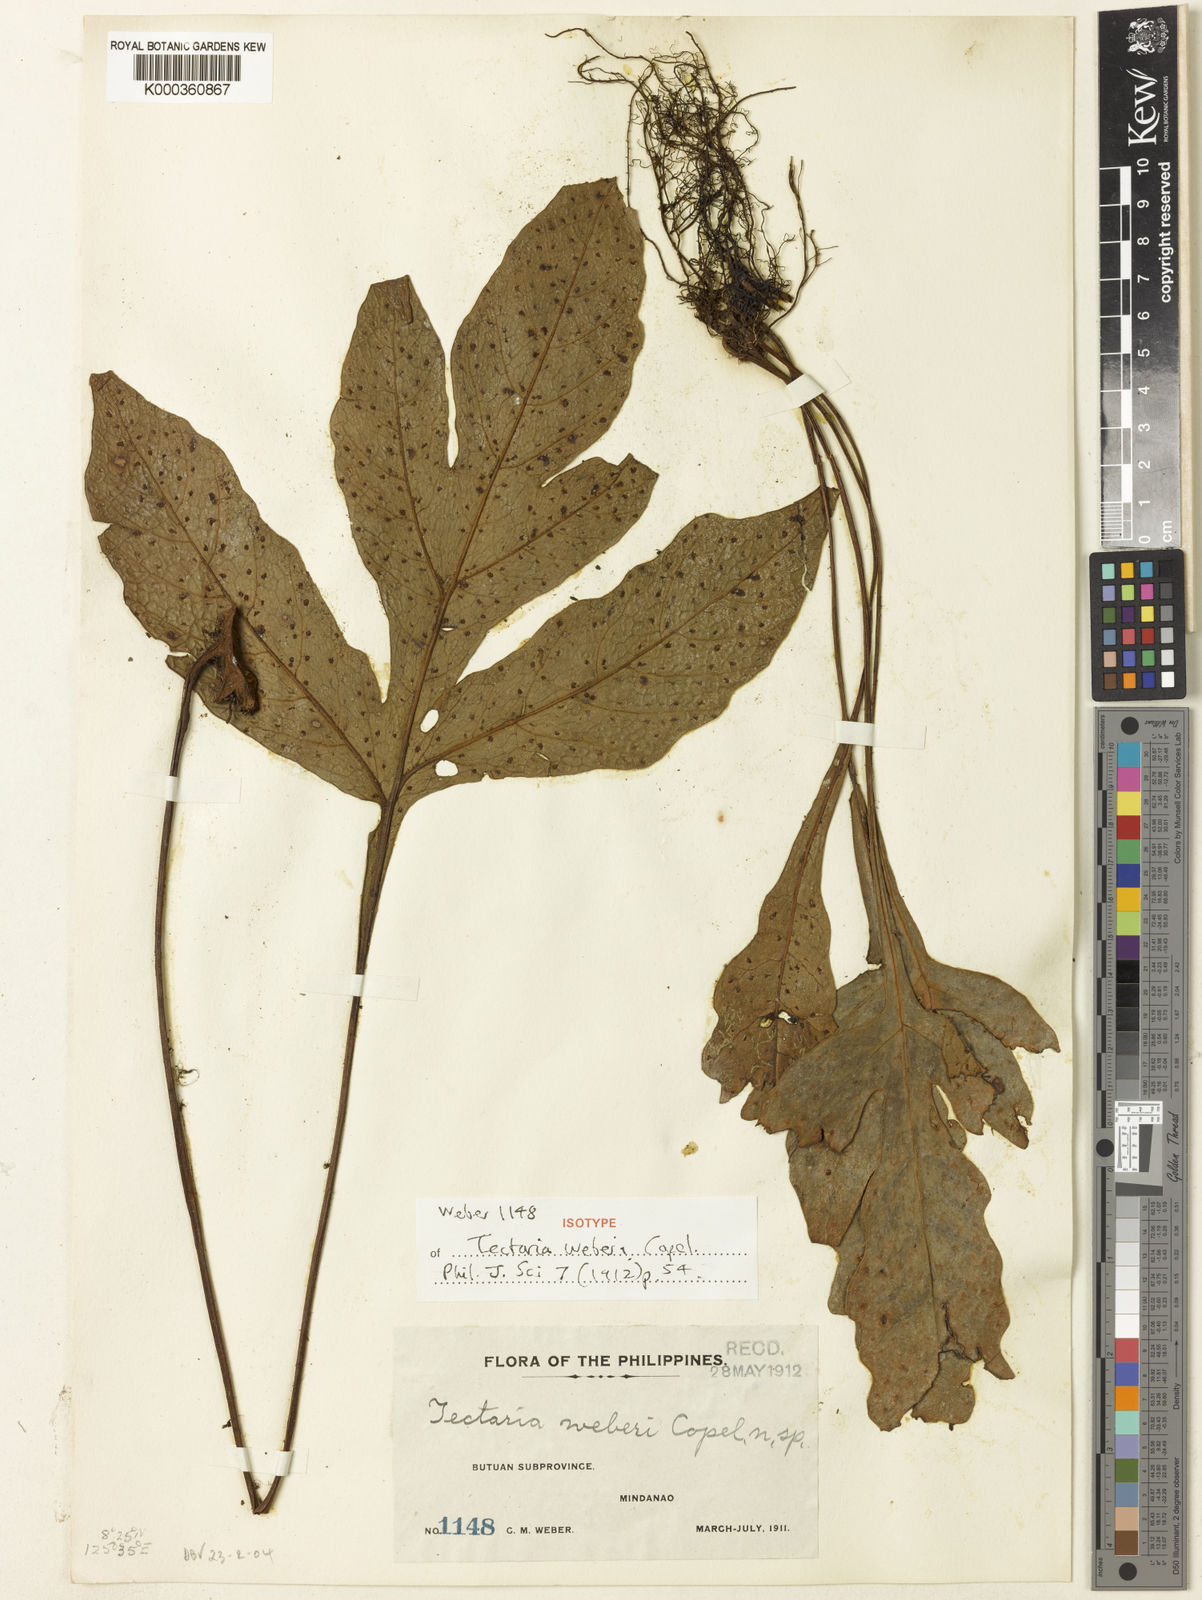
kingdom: Plantae
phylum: Tracheophyta
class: Polypodiopsida
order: Polypodiales
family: Tectariaceae
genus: Tectaria
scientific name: Tectaria weberi
